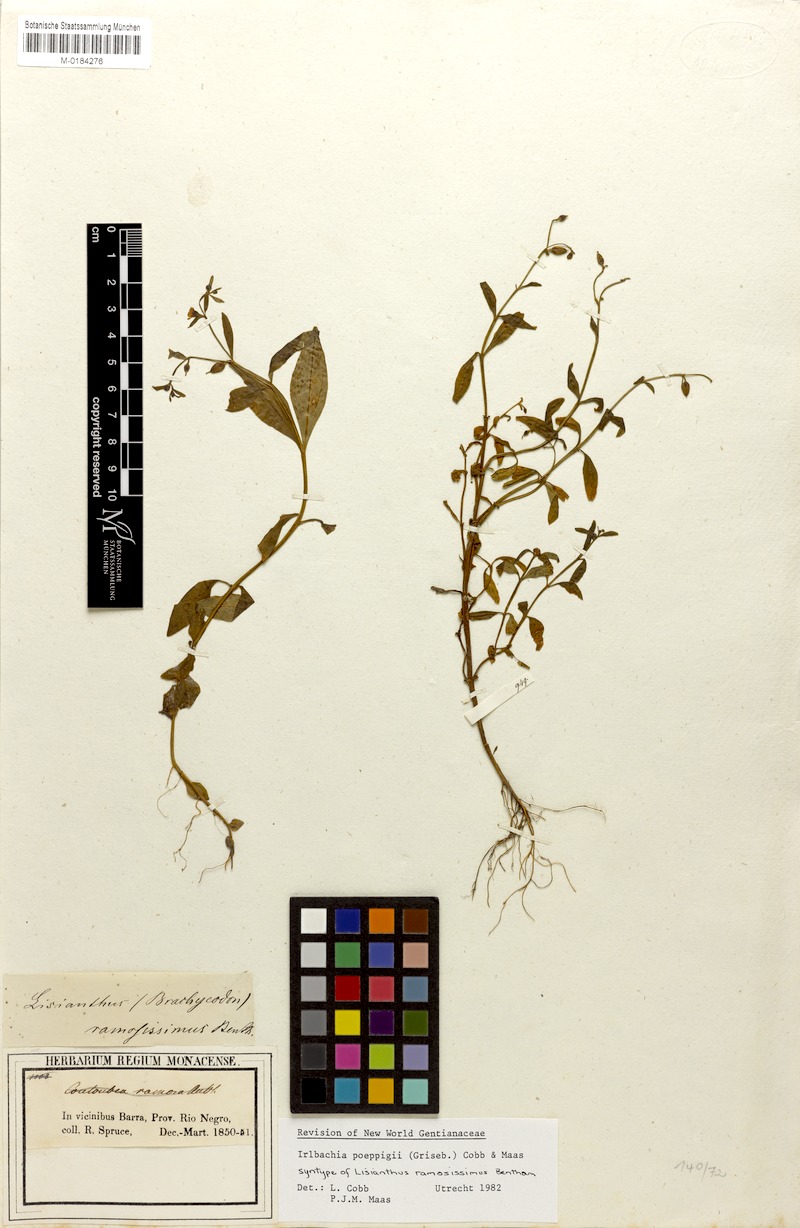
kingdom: Plantae
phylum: Tracheophyta
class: Magnoliopsida
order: Gentianales
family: Gentianaceae
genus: Irlbachia
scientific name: Irlbachia poeppigii
